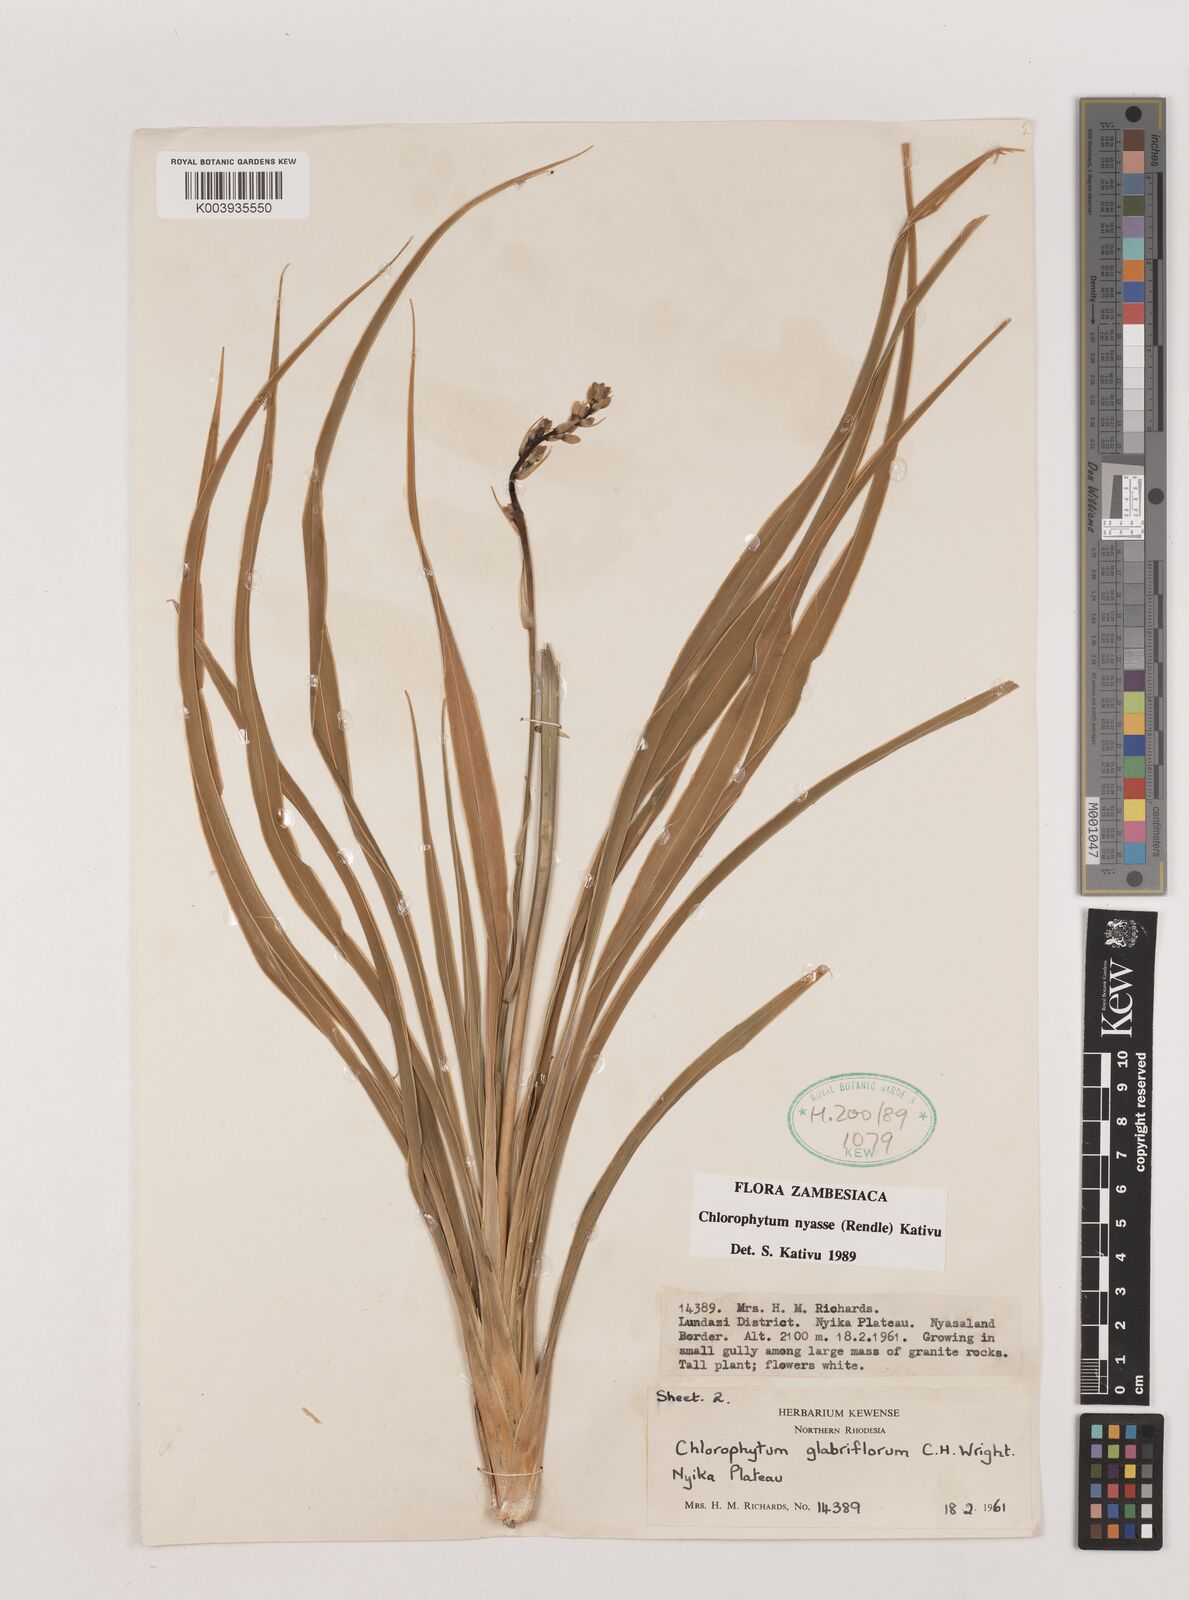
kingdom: Plantae
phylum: Tracheophyta
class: Liliopsida
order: Asparagales
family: Asparagaceae
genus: Chlorophytum
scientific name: Chlorophytum nyasae
